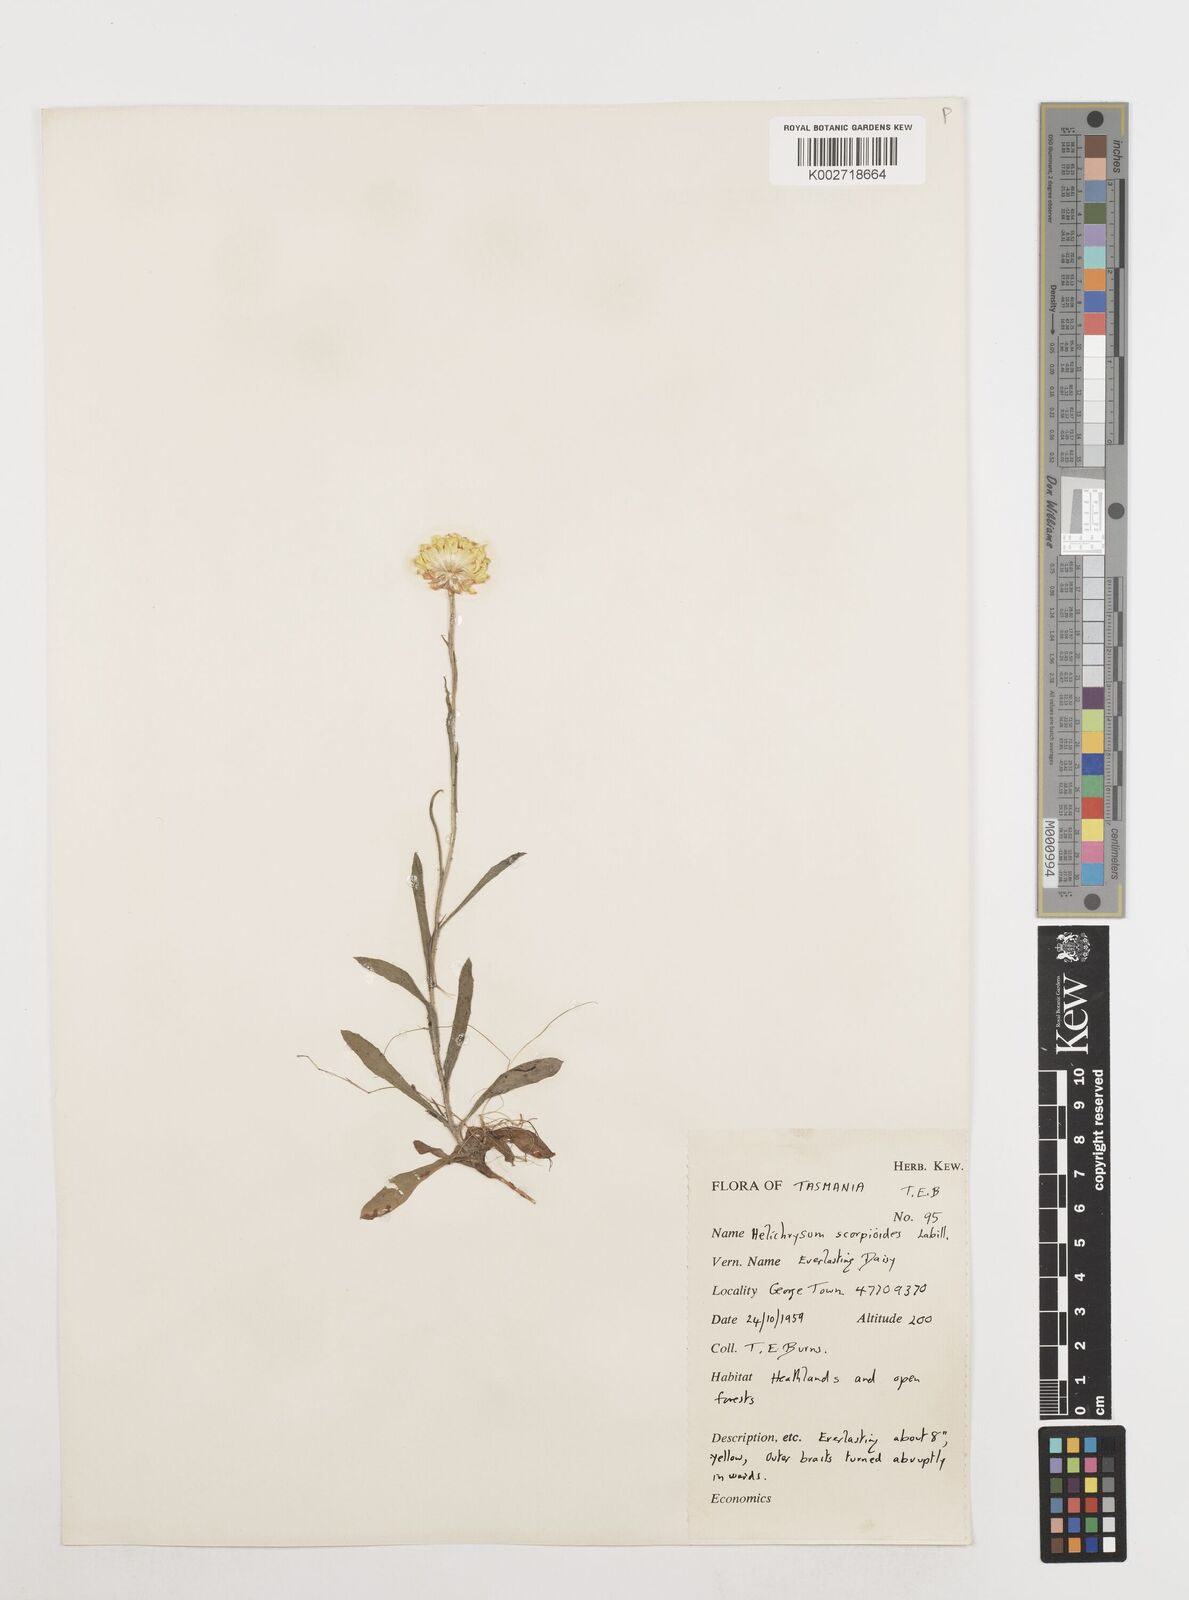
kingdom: Plantae
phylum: Tracheophyta
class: Magnoliopsida
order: Asterales
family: Asteraceae
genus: Coronidium
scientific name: Coronidium scorpioides
